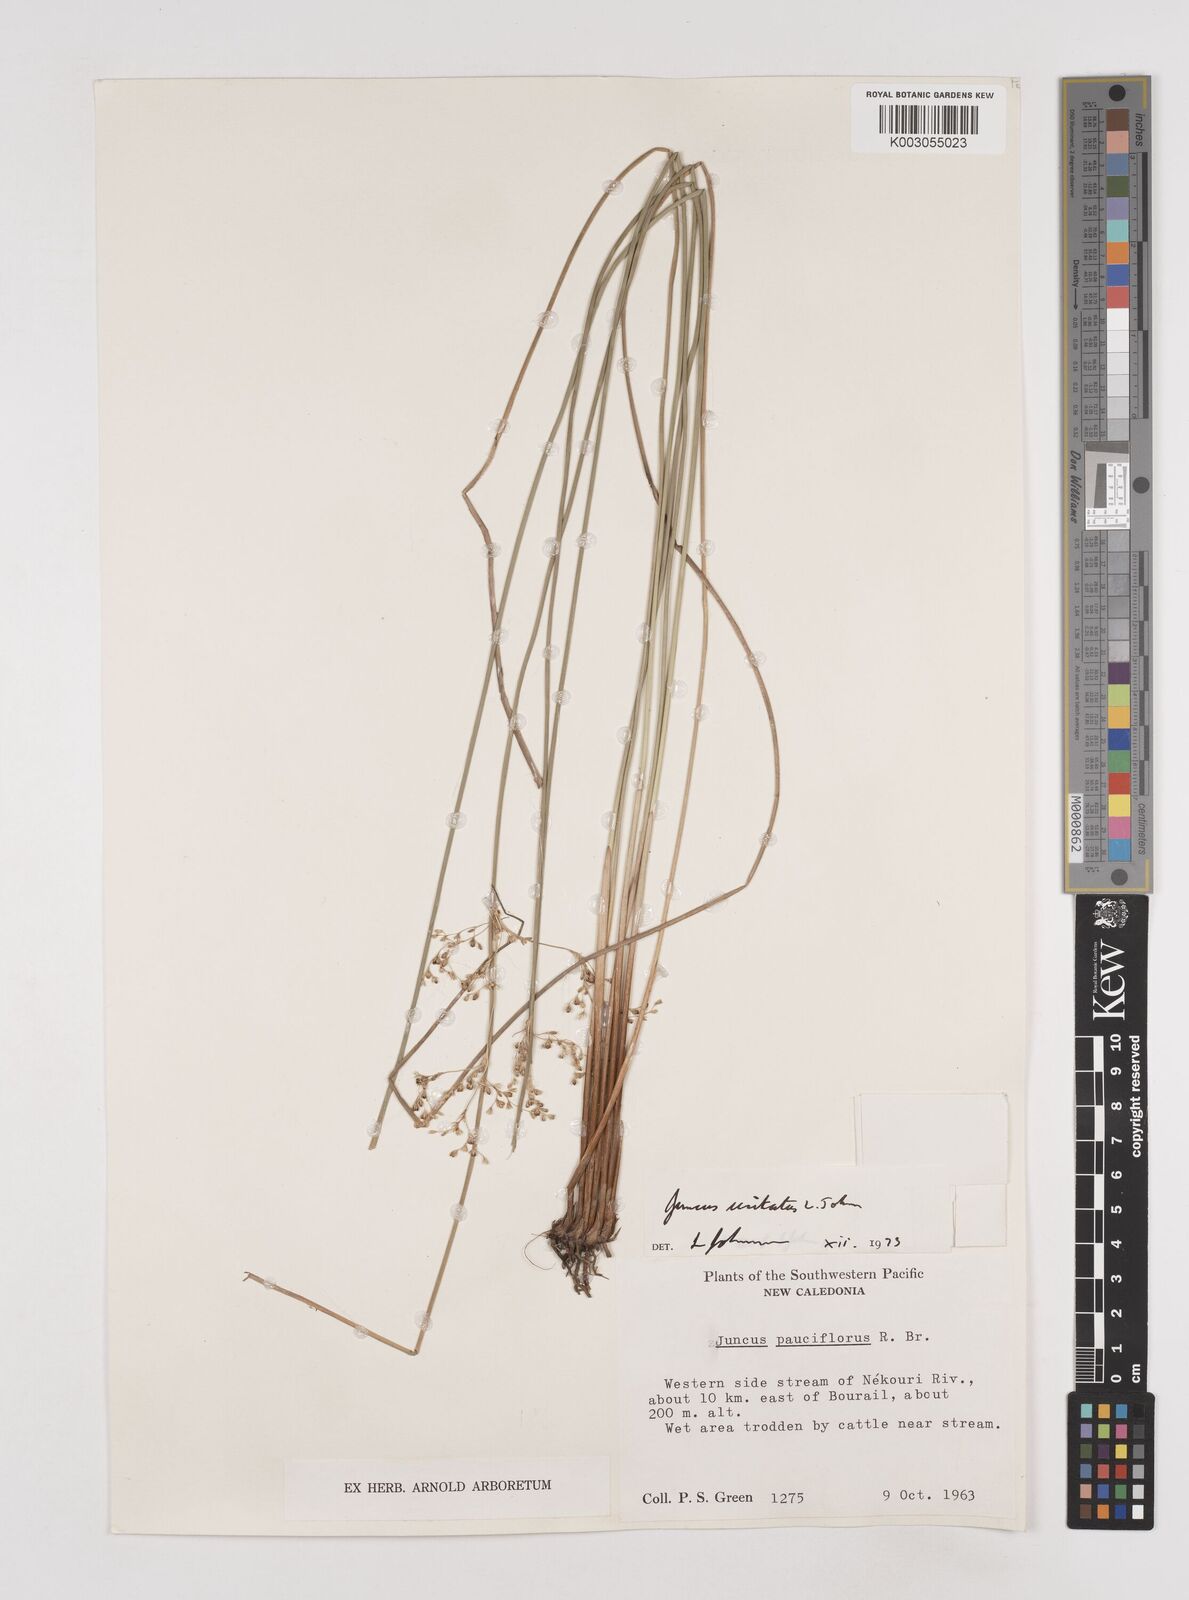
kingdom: Plantae
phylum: Tracheophyta
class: Liliopsida
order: Poales
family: Juncaceae
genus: Juncus
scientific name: Juncus usitatus
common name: Rush
